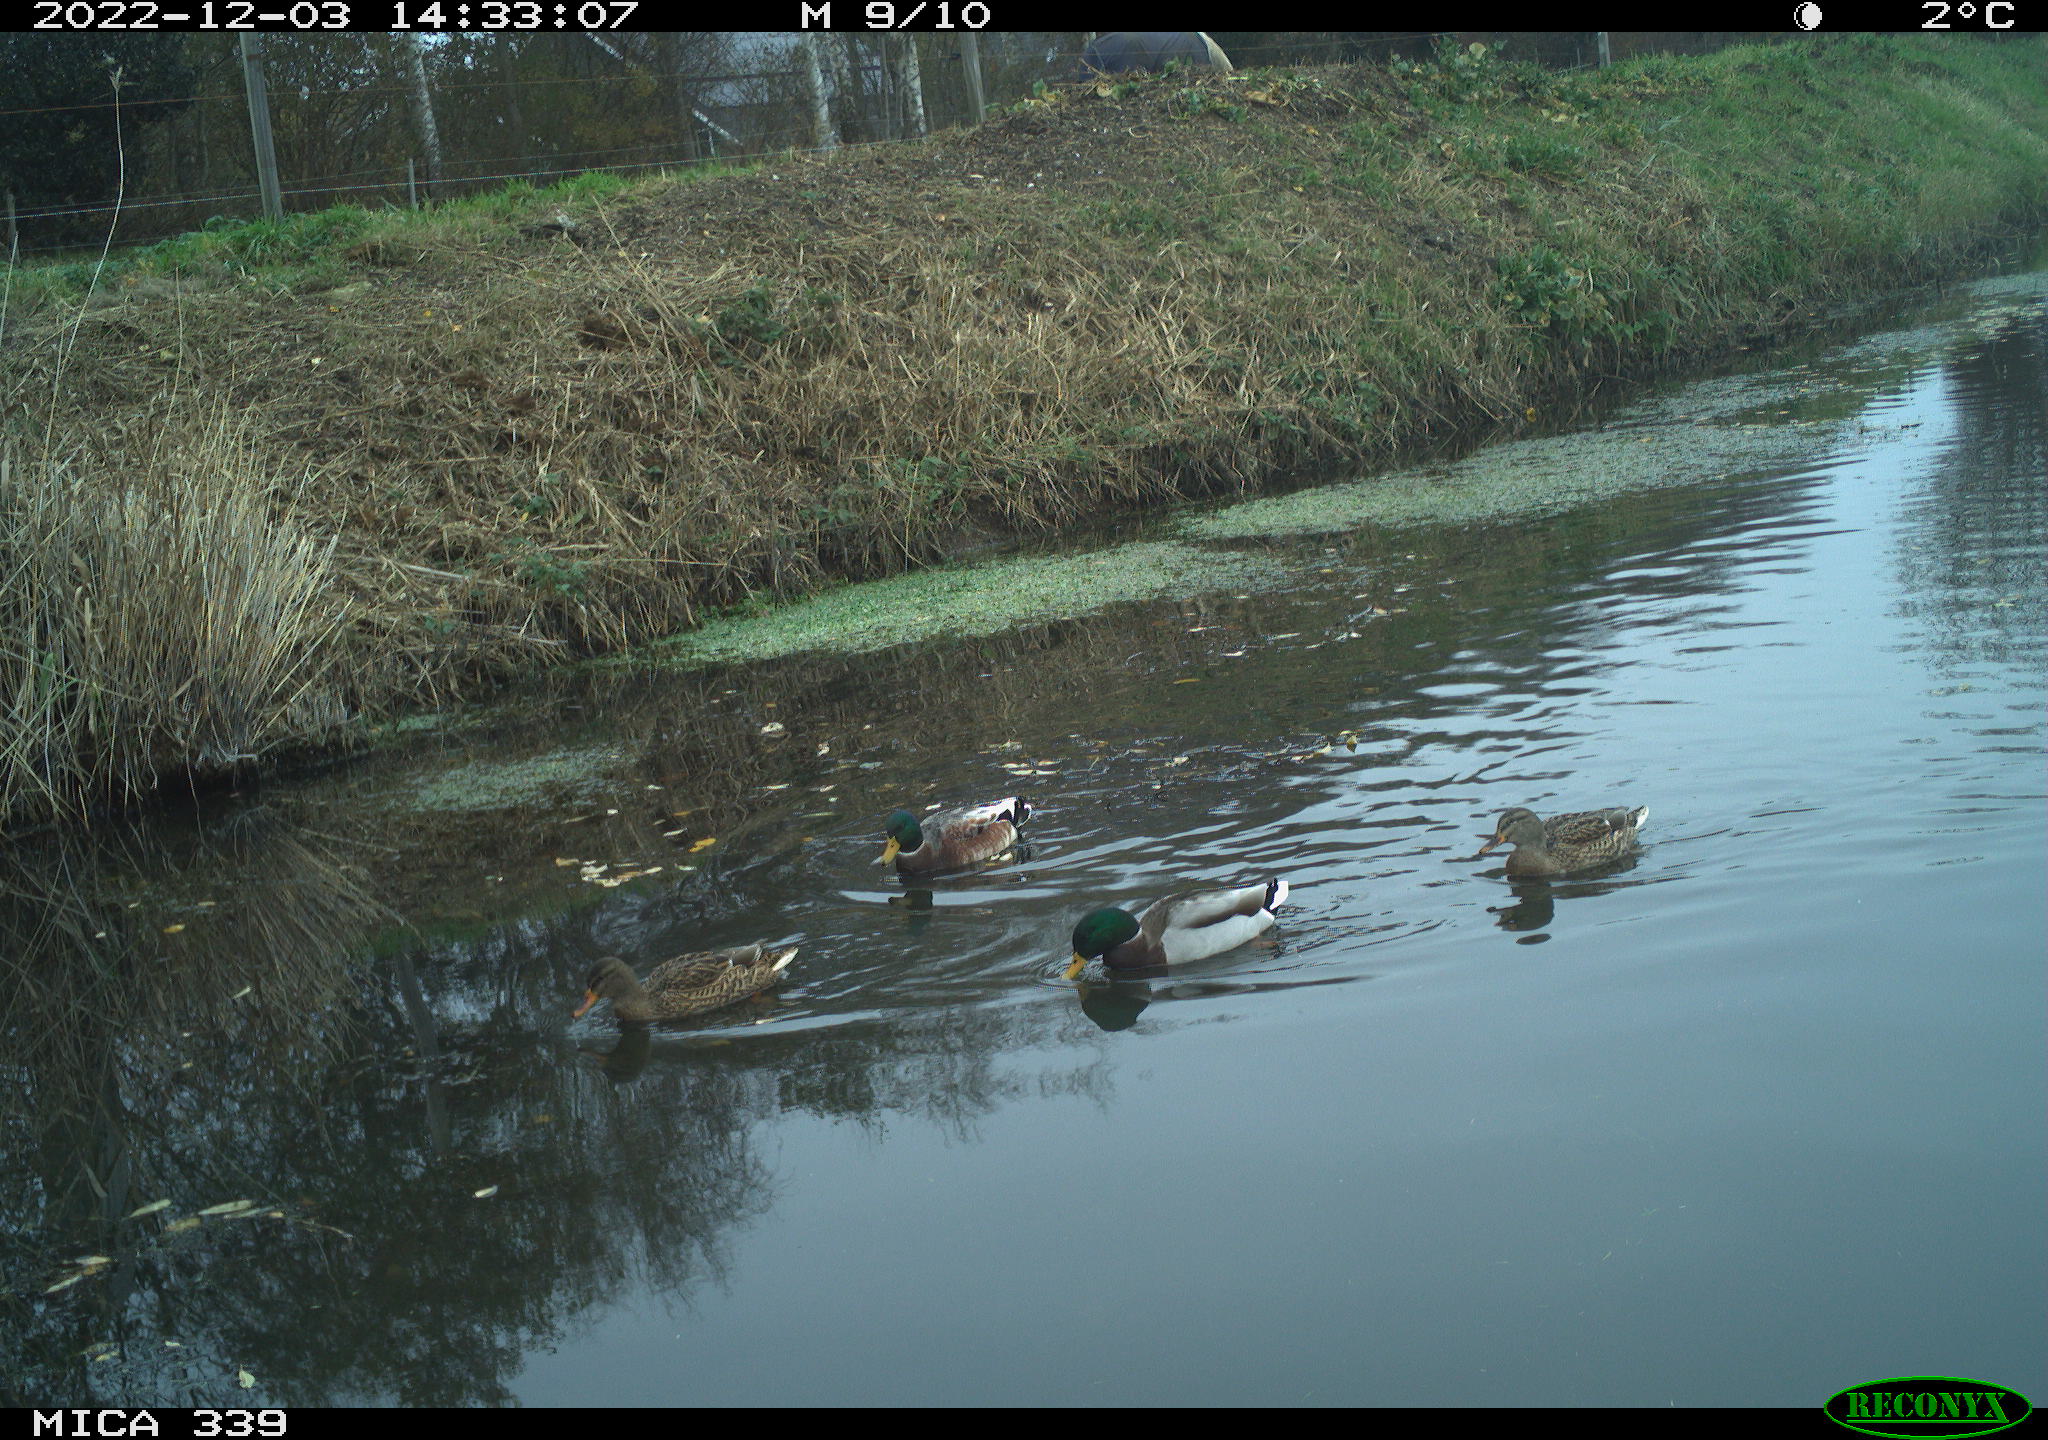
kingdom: Animalia
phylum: Chordata
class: Aves
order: Anseriformes
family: Anatidae
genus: Anas
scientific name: Anas
